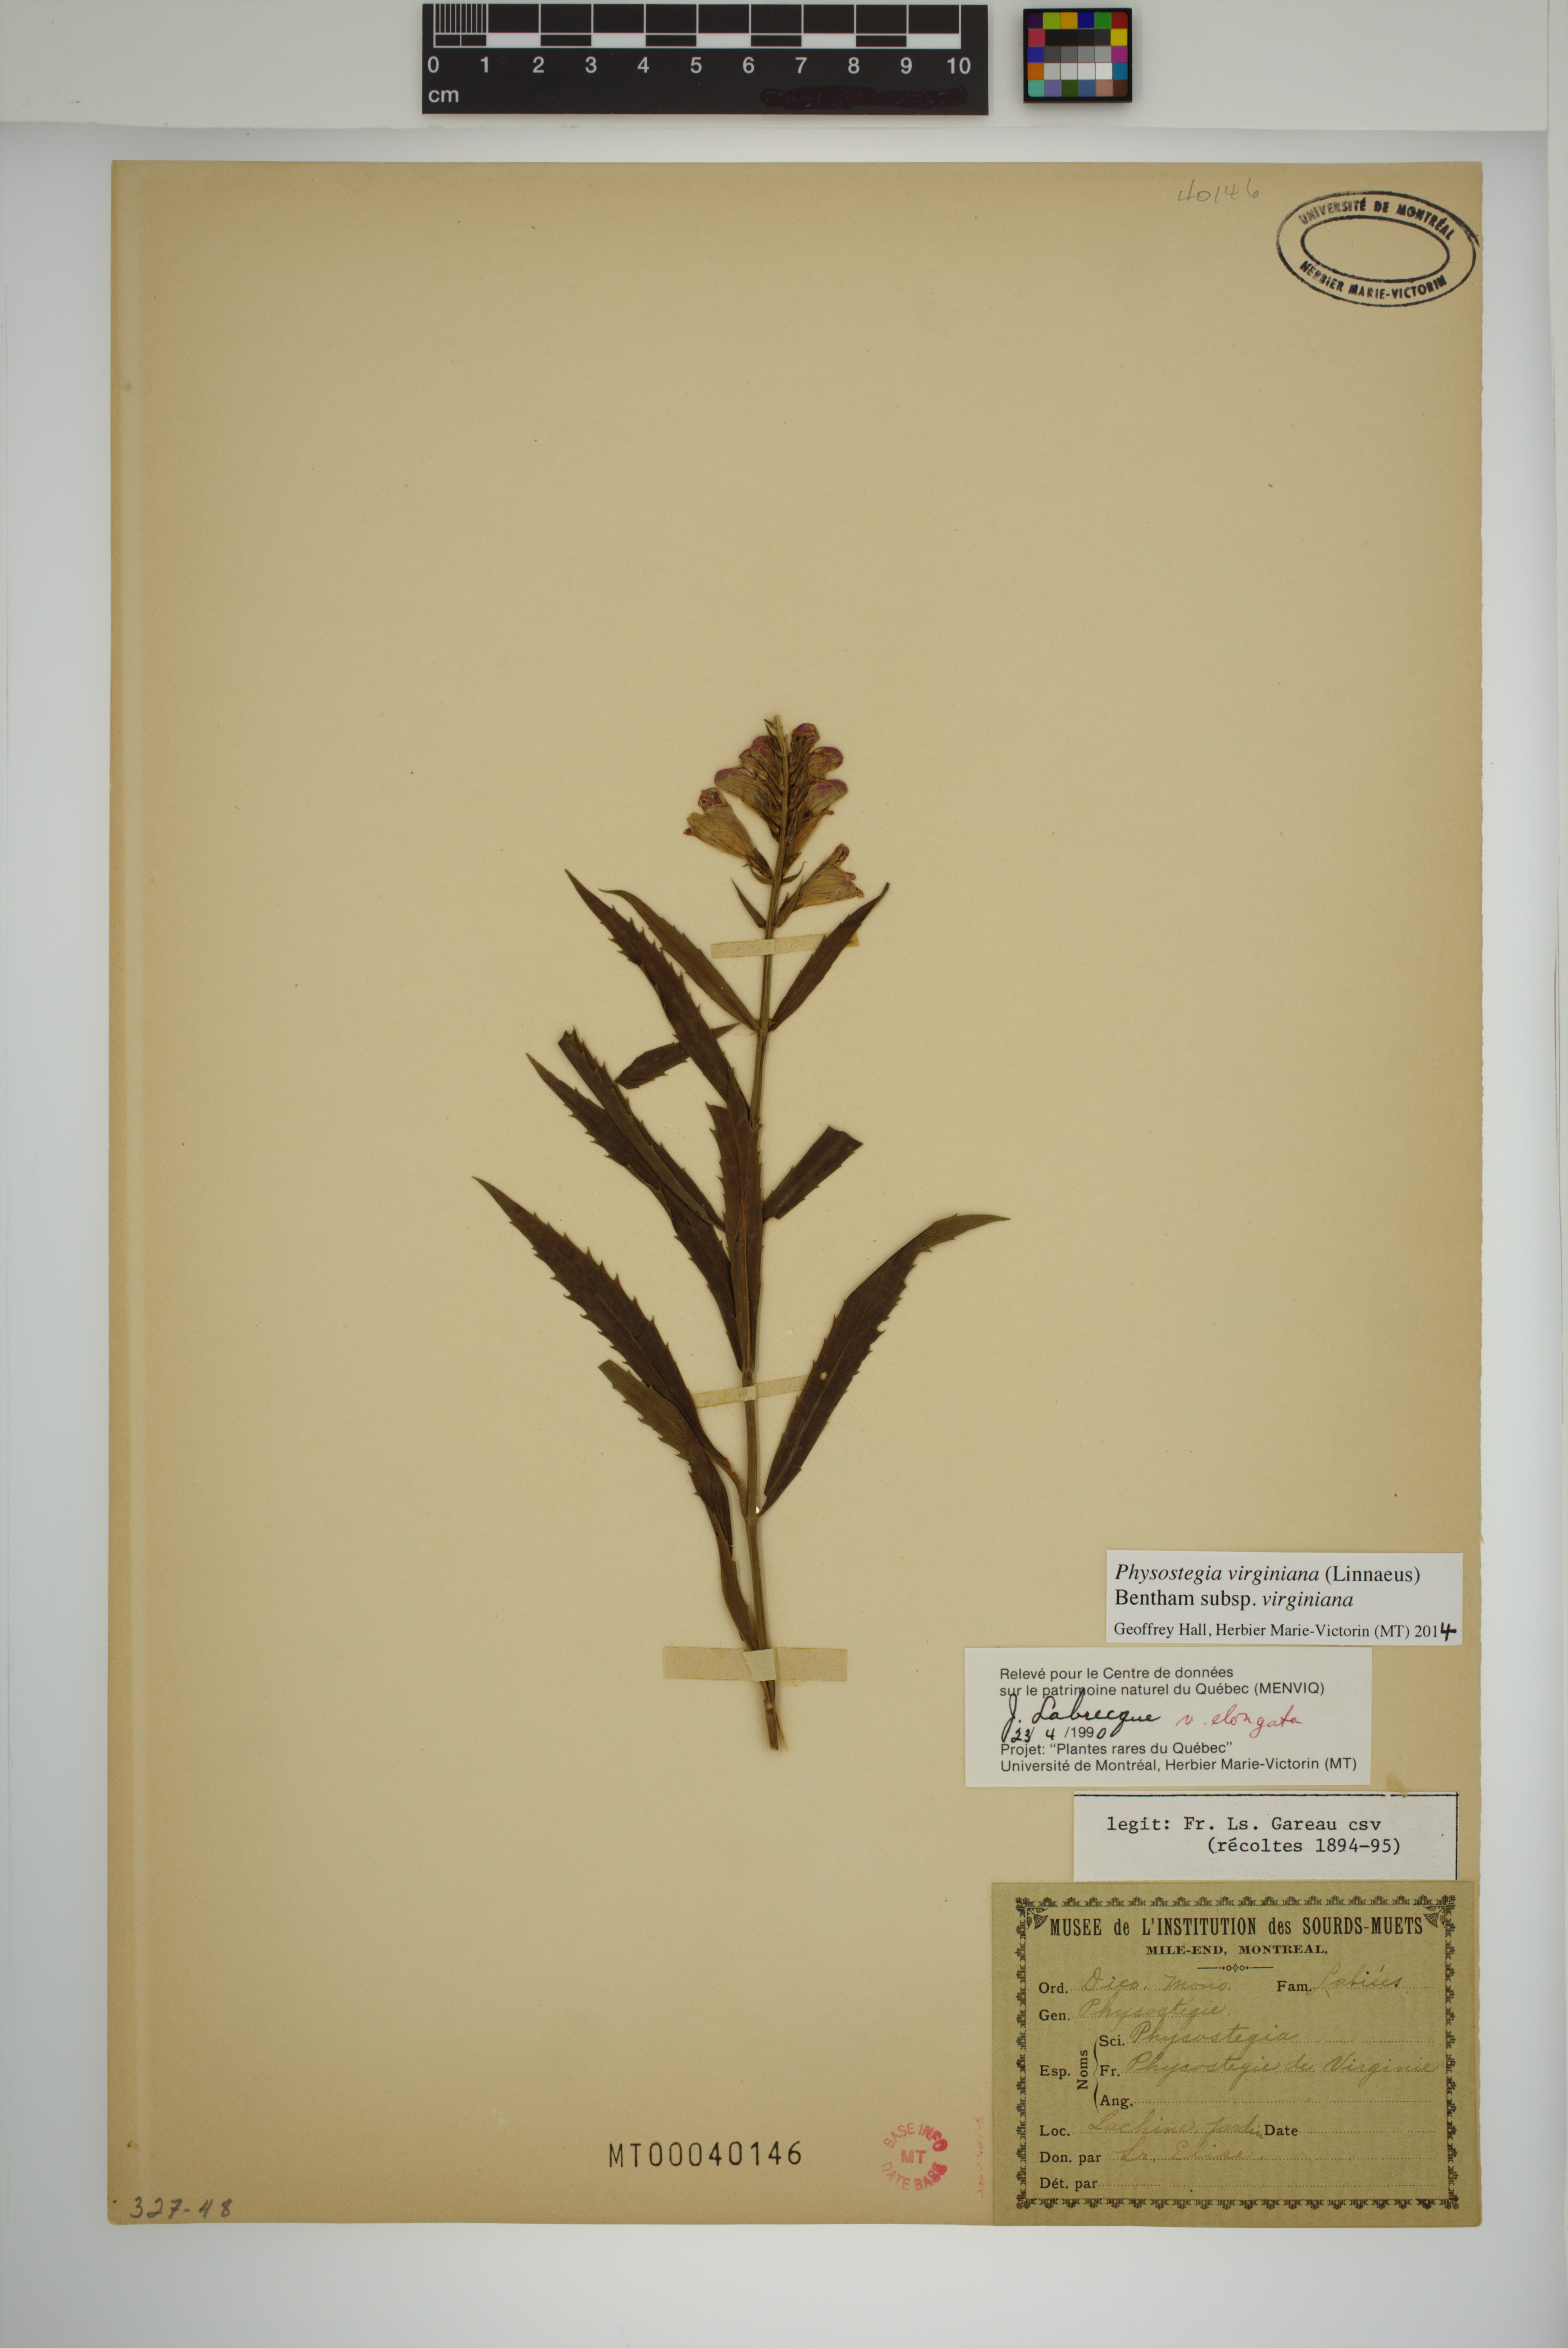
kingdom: Plantae
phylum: Tracheophyta
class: Magnoliopsida
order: Lamiales
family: Lamiaceae
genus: Physostegia
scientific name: Physostegia virginiana
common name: Obedient-plant
